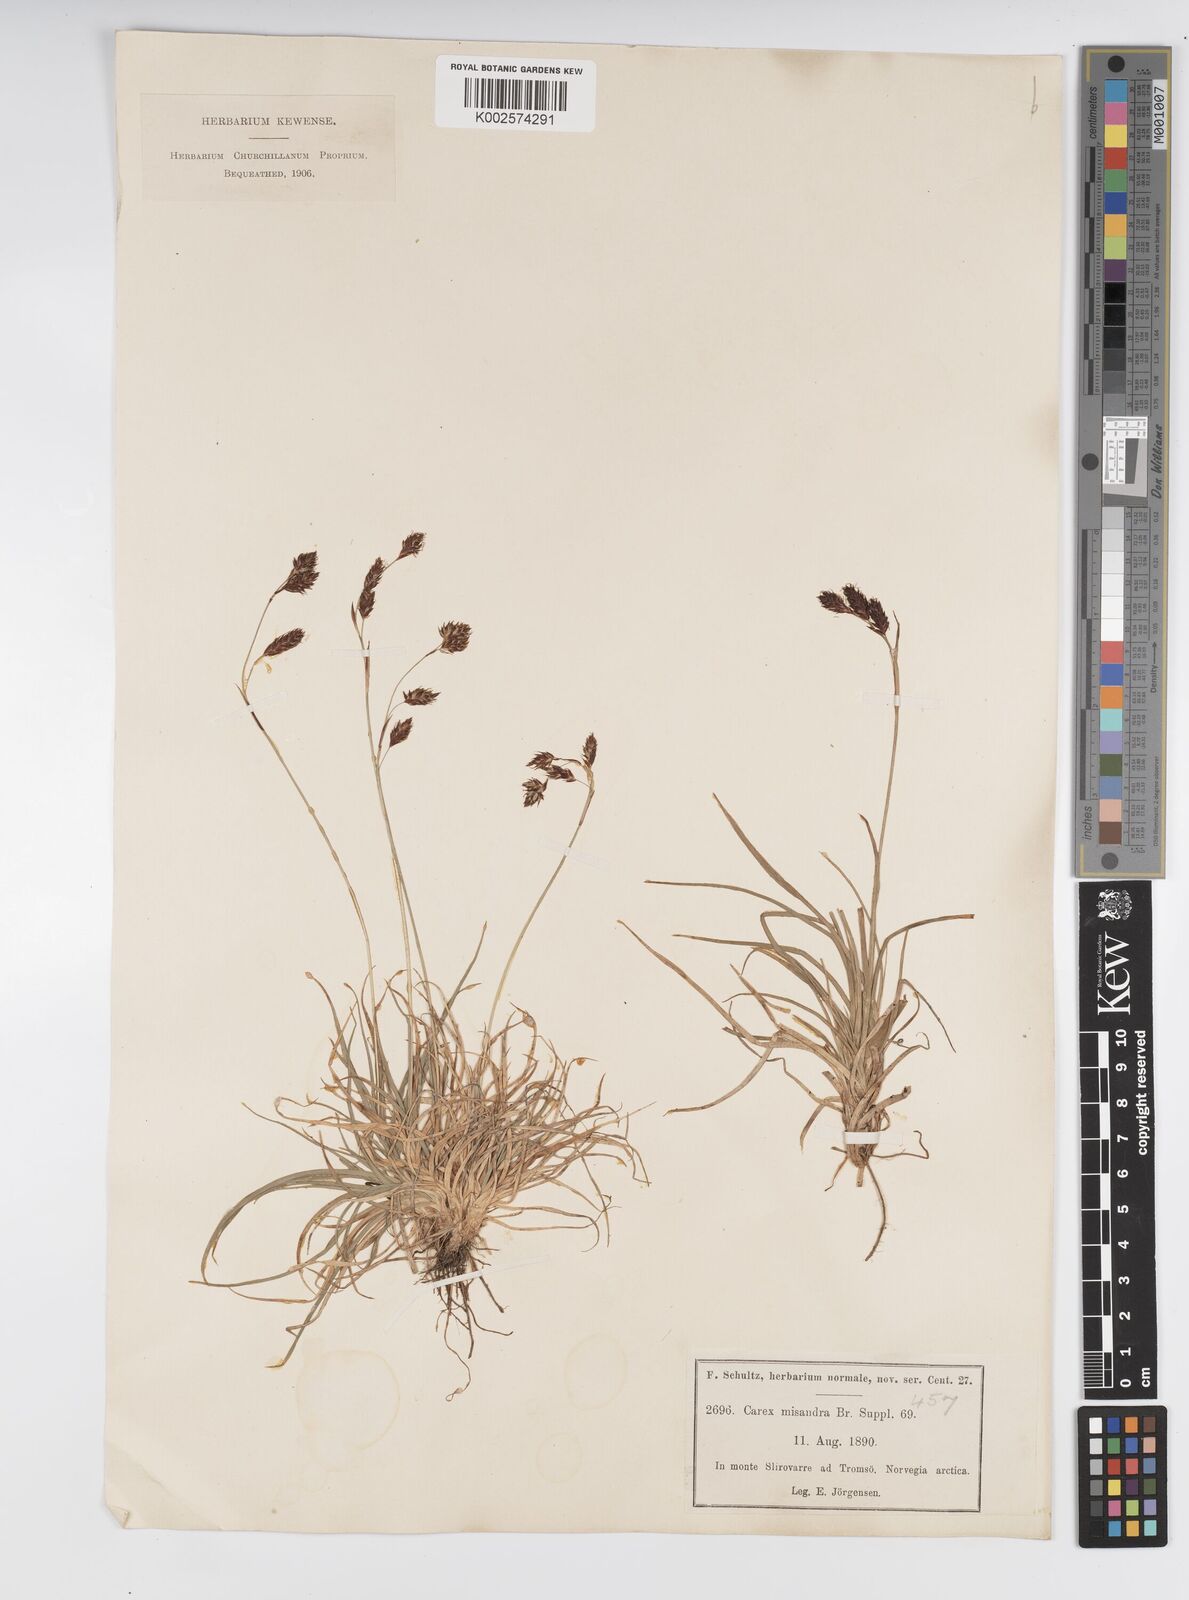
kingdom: Plantae
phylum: Tracheophyta
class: Liliopsida
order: Poales
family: Cyperaceae
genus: Carex
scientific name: Carex fuliginosa
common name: Few-flowered sedge
